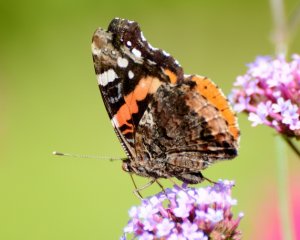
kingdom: Animalia
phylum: Arthropoda
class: Insecta
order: Lepidoptera
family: Nymphalidae
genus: Vanessa
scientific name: Vanessa atalanta
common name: Red Admiral
